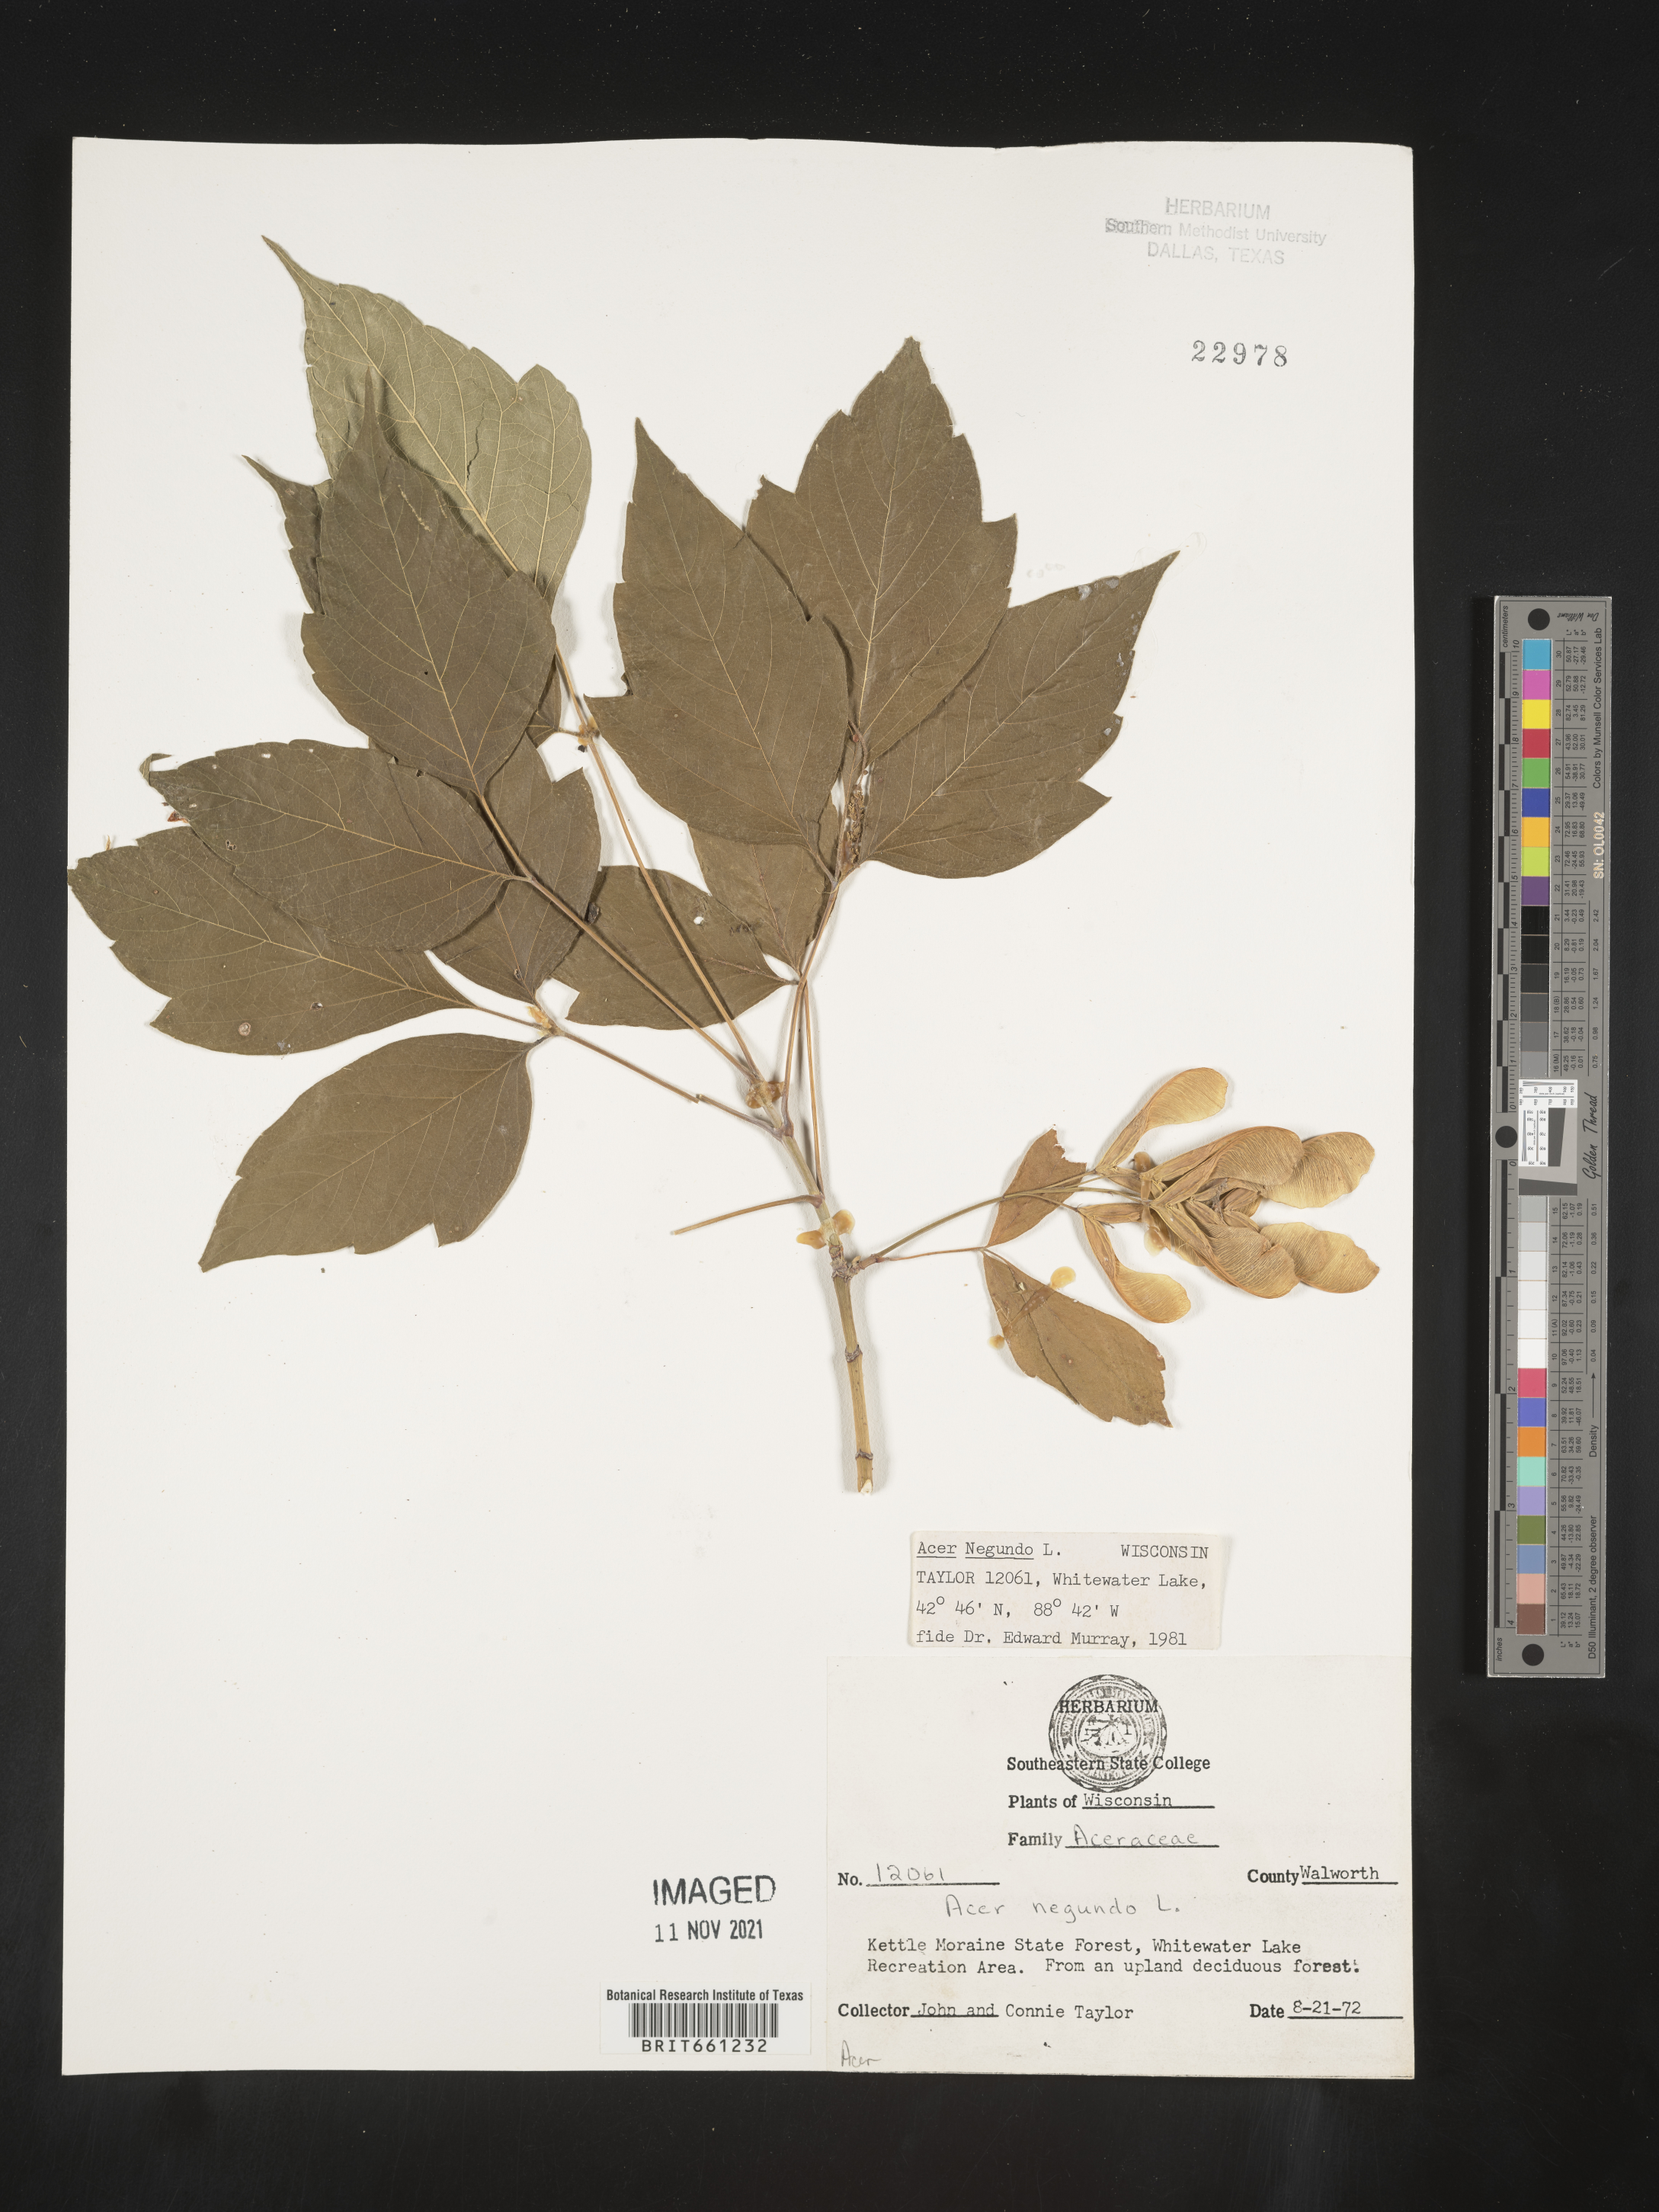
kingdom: Plantae
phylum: Tracheophyta
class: Magnoliopsida
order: Sapindales
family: Sapindaceae
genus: Acer
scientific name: Acer negundo
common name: Ashleaf maple
